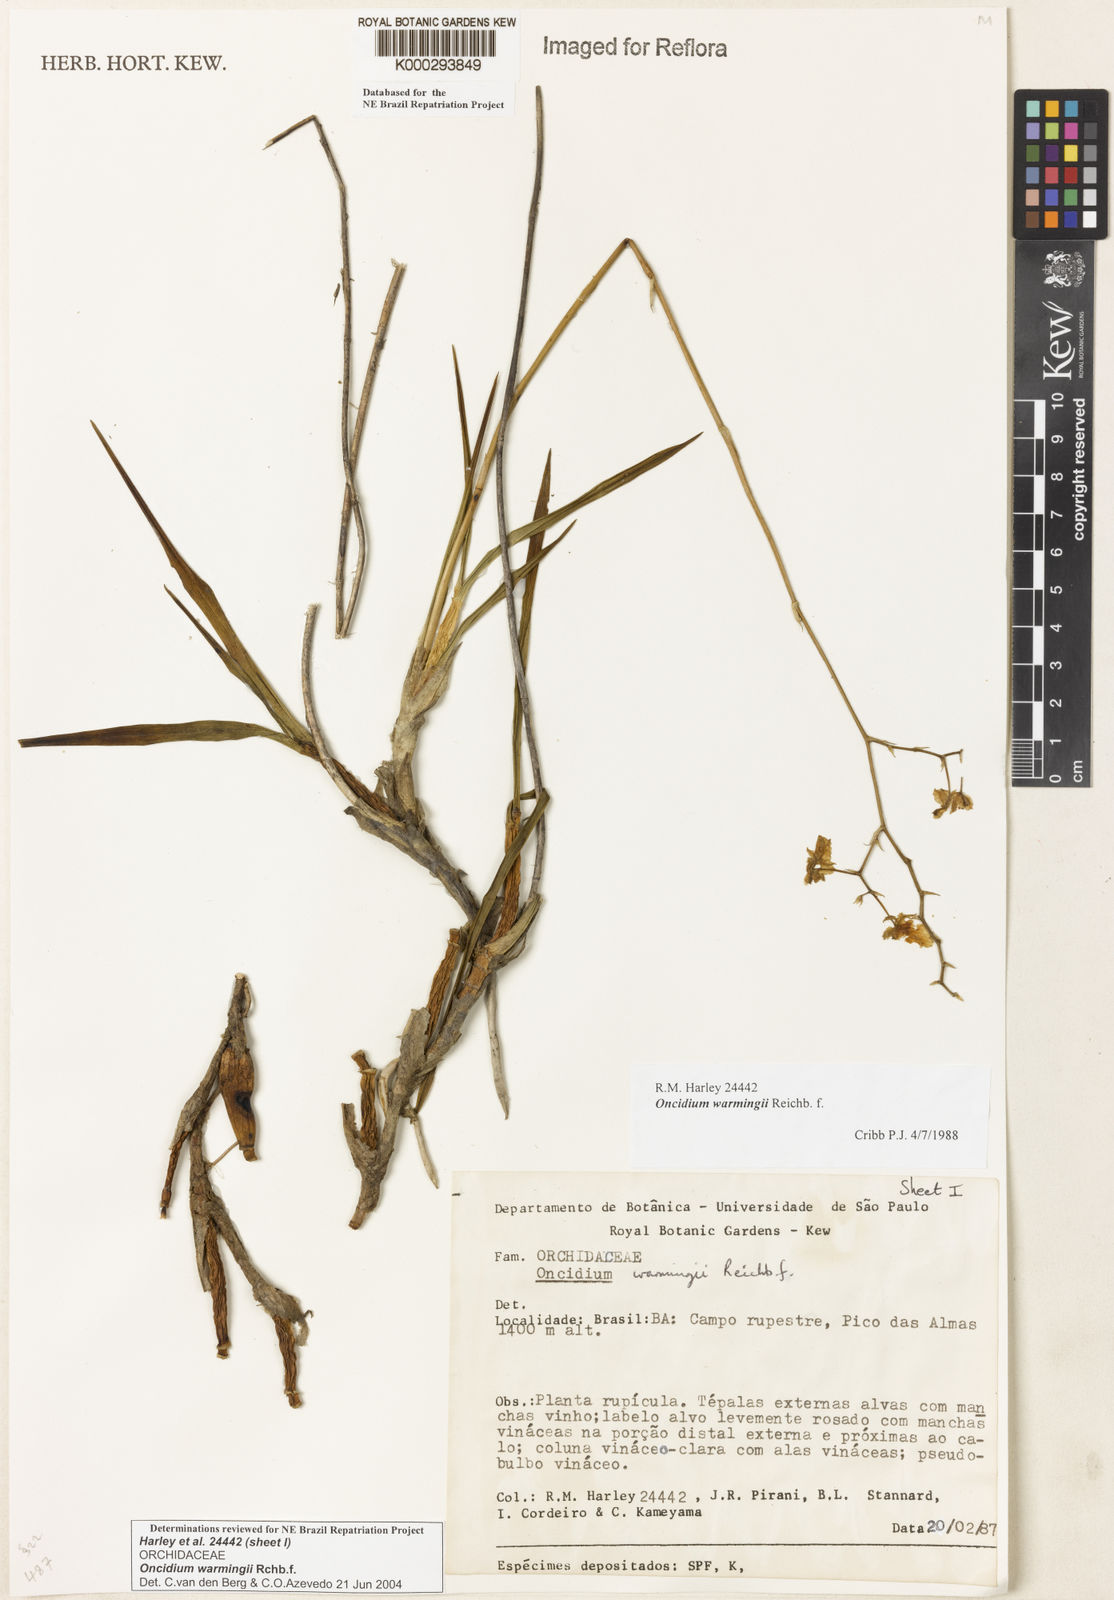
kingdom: Plantae
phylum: Tracheophyta
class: Liliopsida
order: Asparagales
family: Orchidaceae
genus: Gomesa
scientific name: Gomesa warmingii
